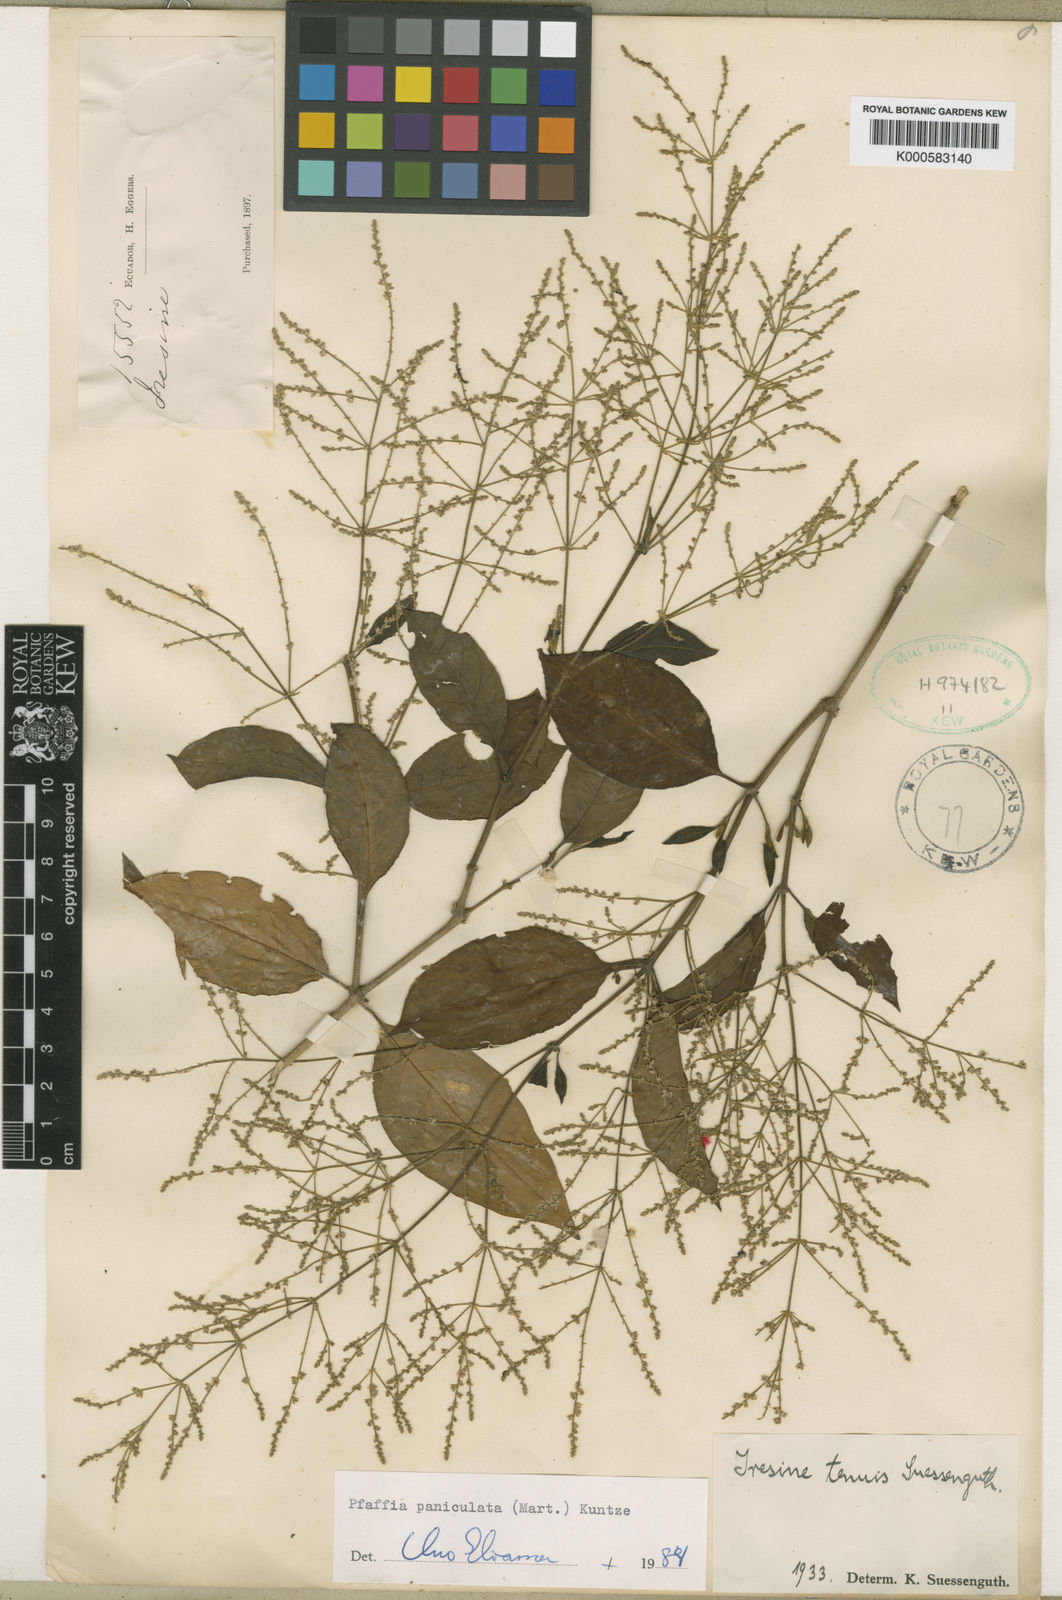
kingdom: Plantae
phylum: Tracheophyta
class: Magnoliopsida
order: Caryophyllales
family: Amaranthaceae
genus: Hebanthe
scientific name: Hebanthe erianthos
